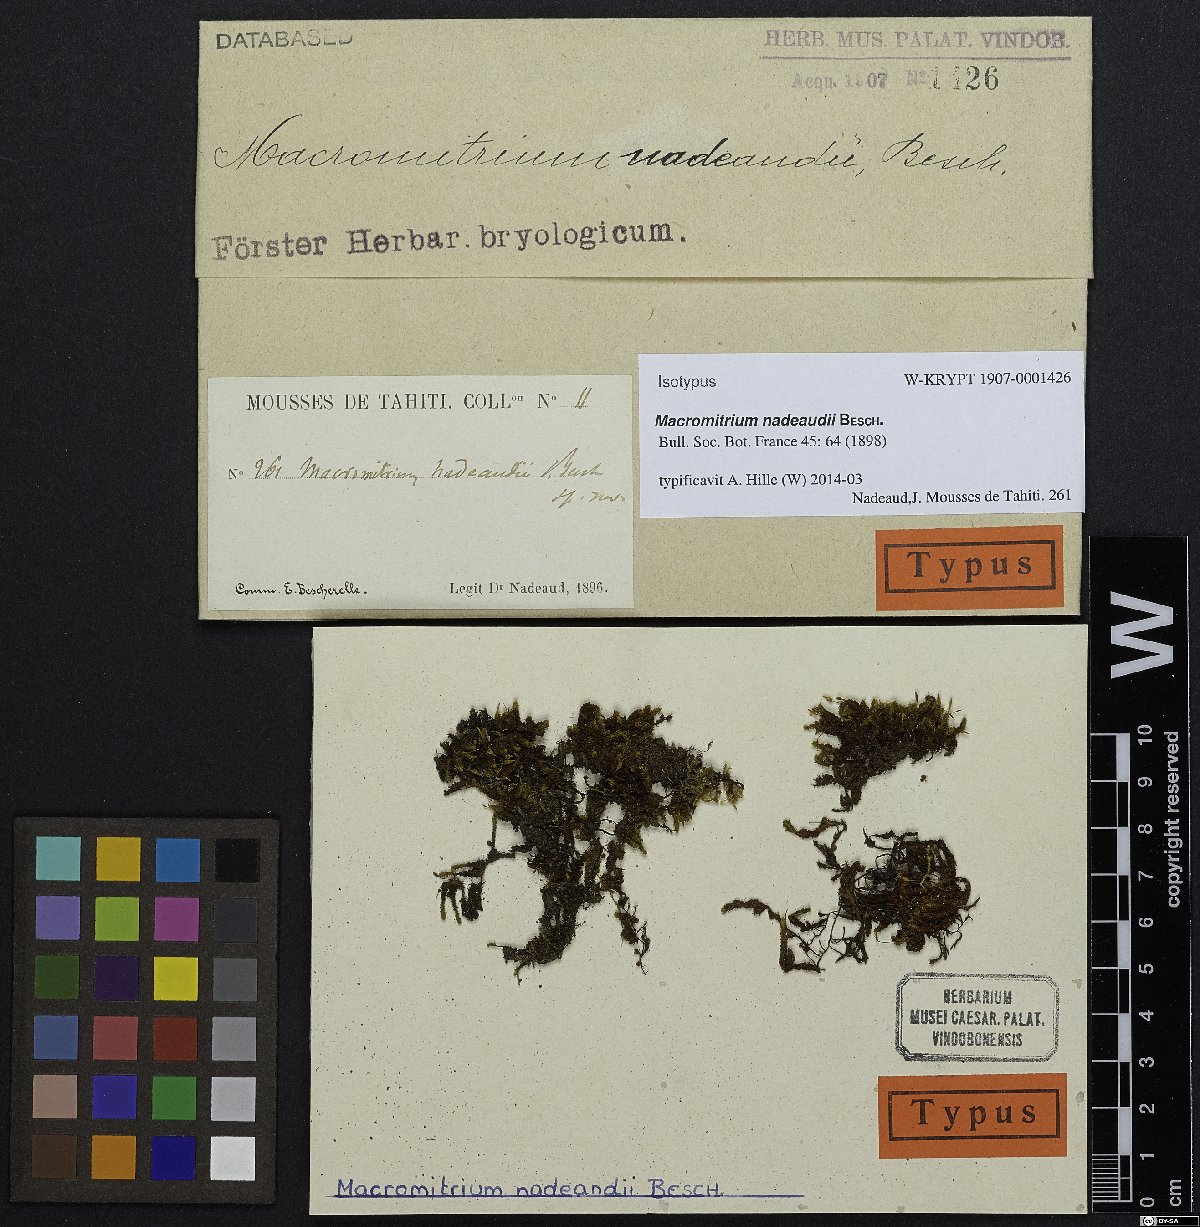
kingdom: Plantae
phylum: Bryophyta
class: Bryopsida
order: Orthotrichales
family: Orthotrichaceae
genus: Macromitrium
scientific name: Macromitrium incurvifolium
